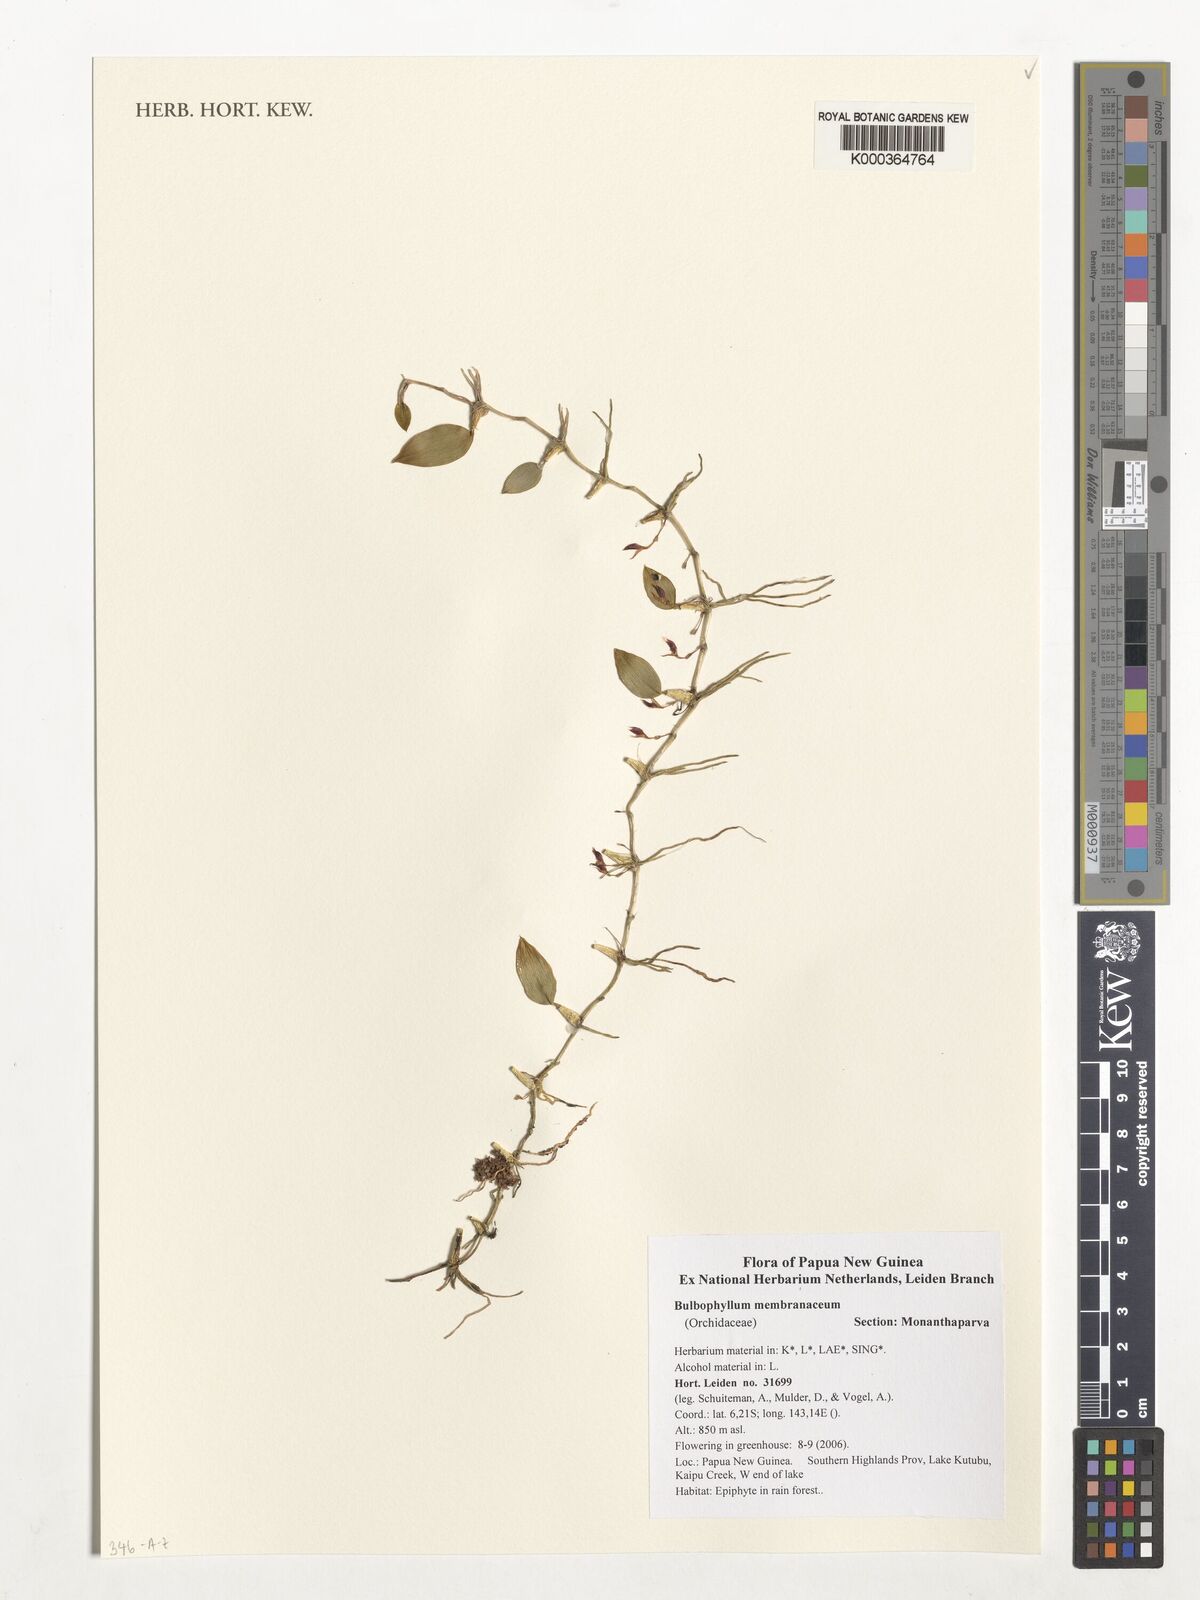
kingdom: Plantae
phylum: Tracheophyta
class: Liliopsida
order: Asparagales
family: Orchidaceae
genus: Bulbophyllum
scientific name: Bulbophyllum membranaceum
